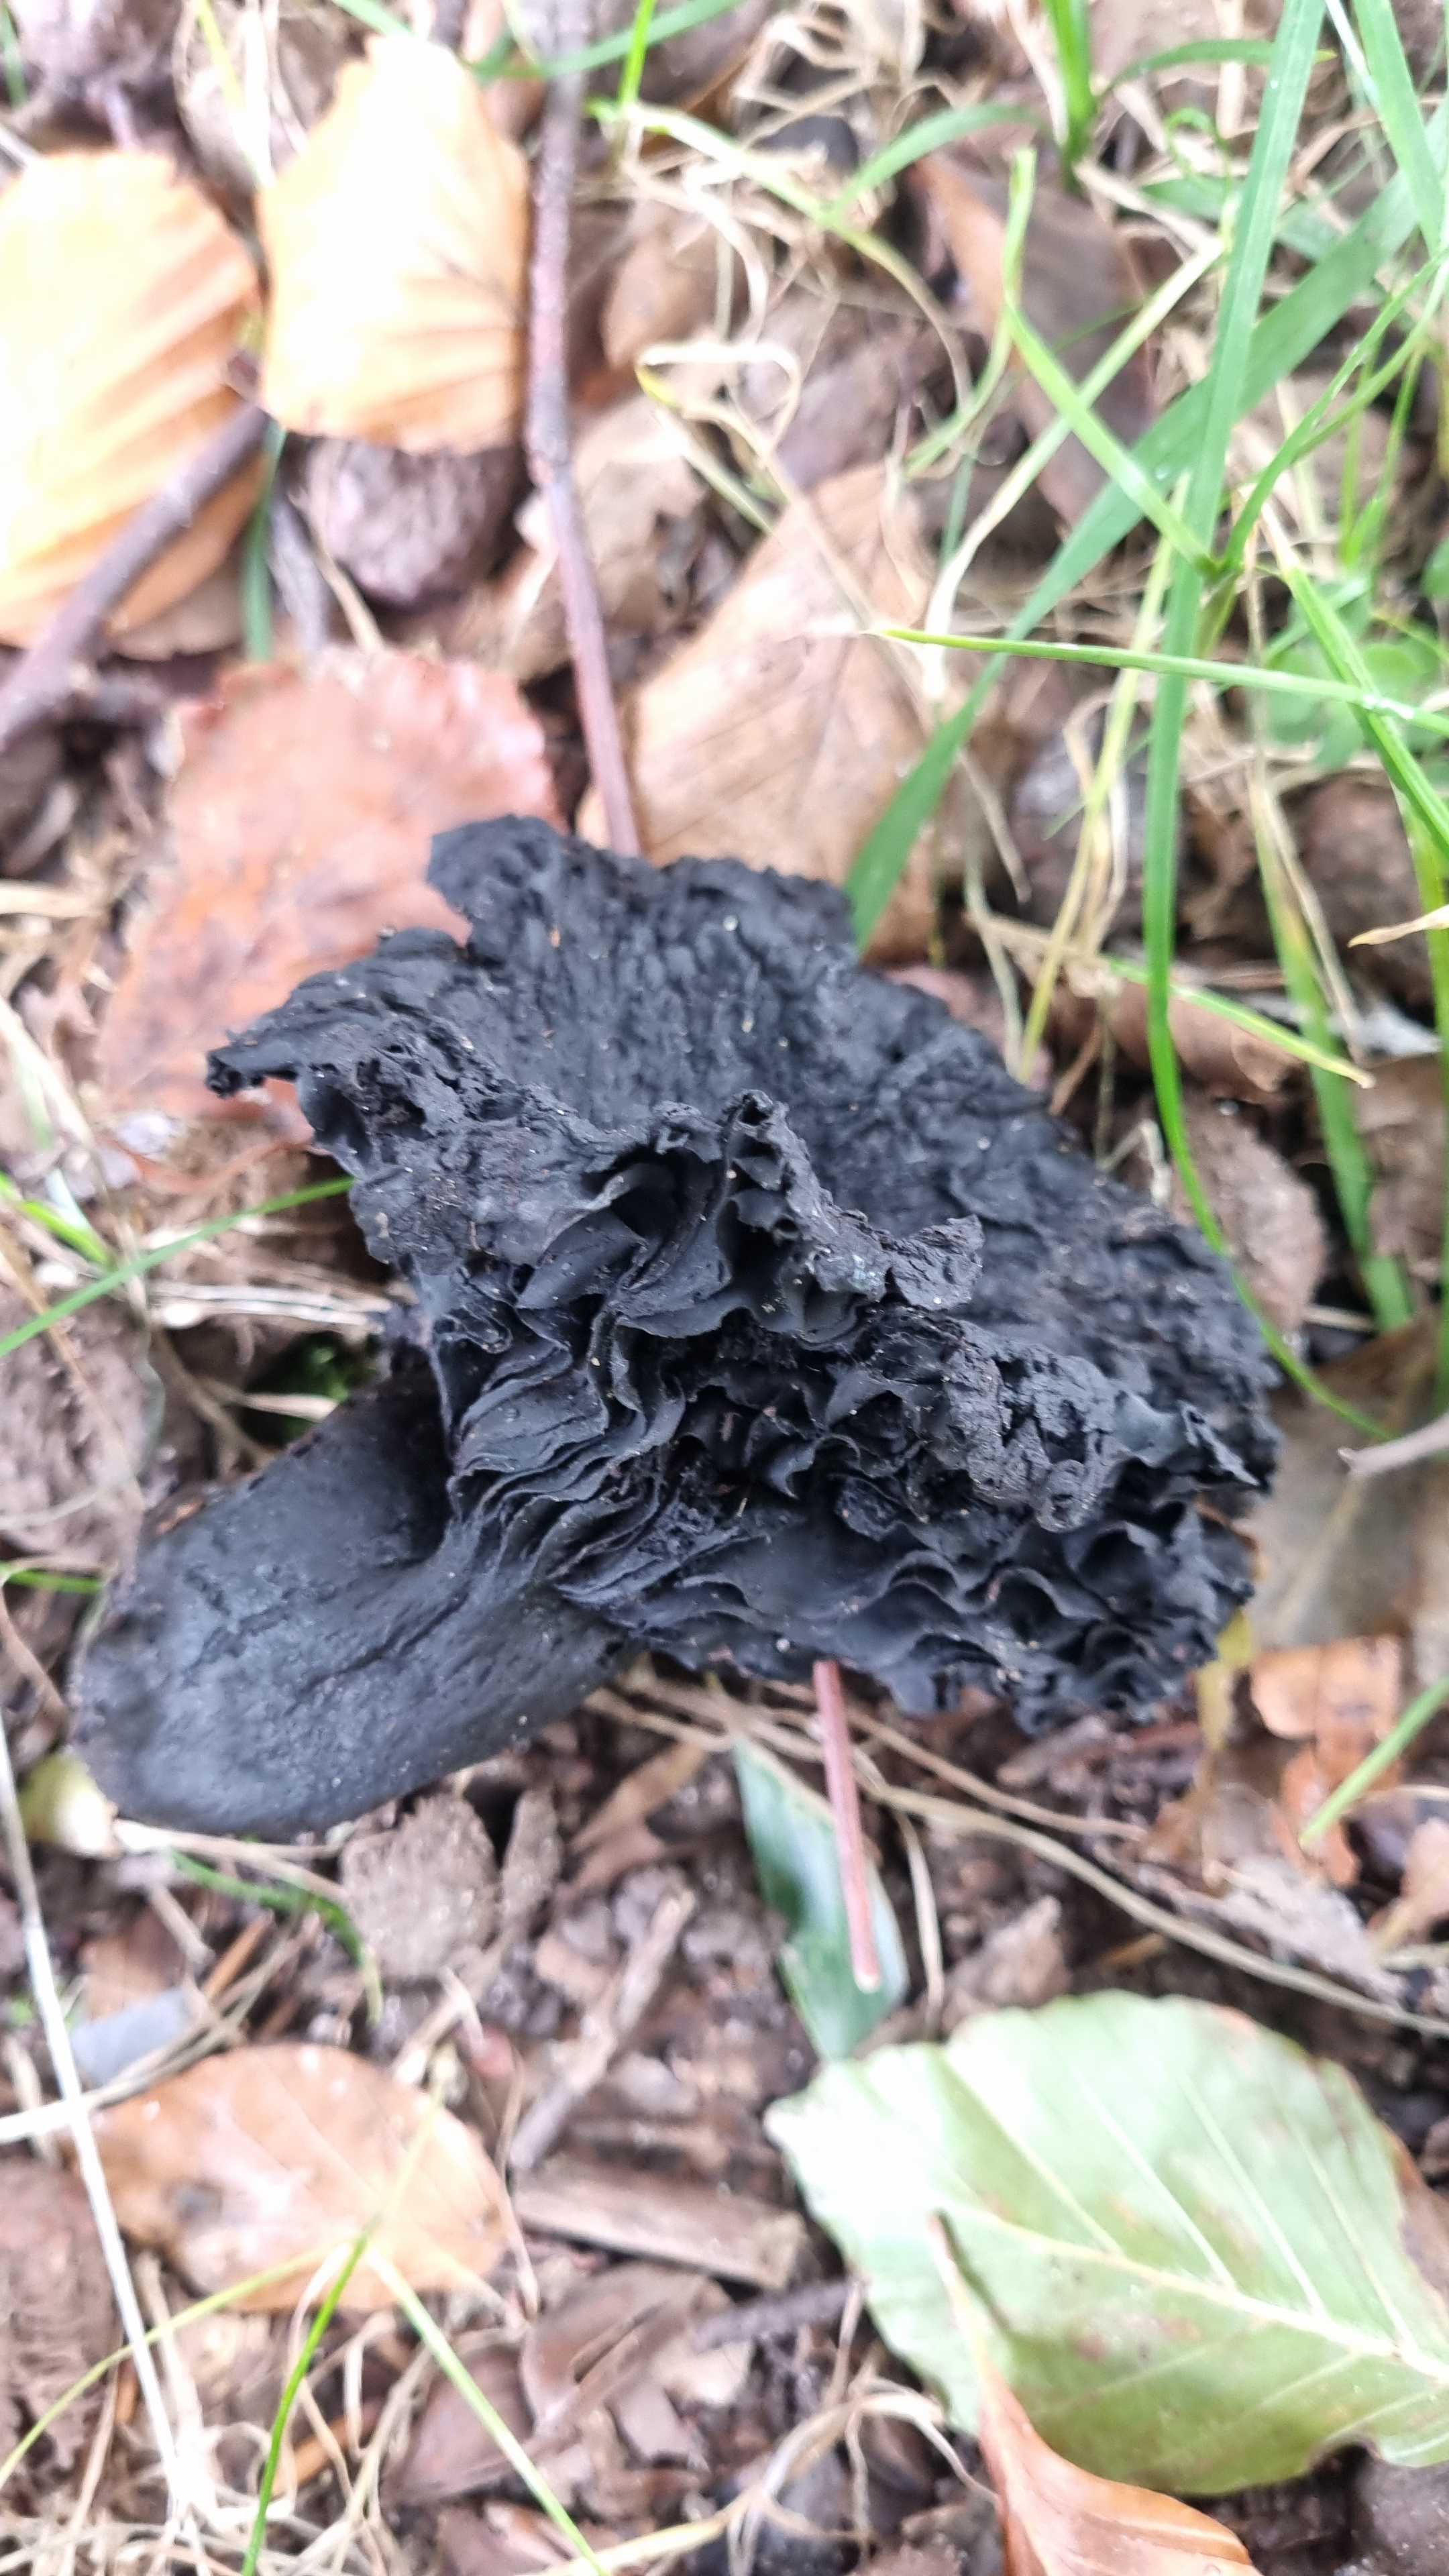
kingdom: Fungi
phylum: Basidiomycota
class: Agaricomycetes
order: Russulales
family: Russulaceae
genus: Russula
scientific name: Russula adusta
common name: sværtende skørhat
